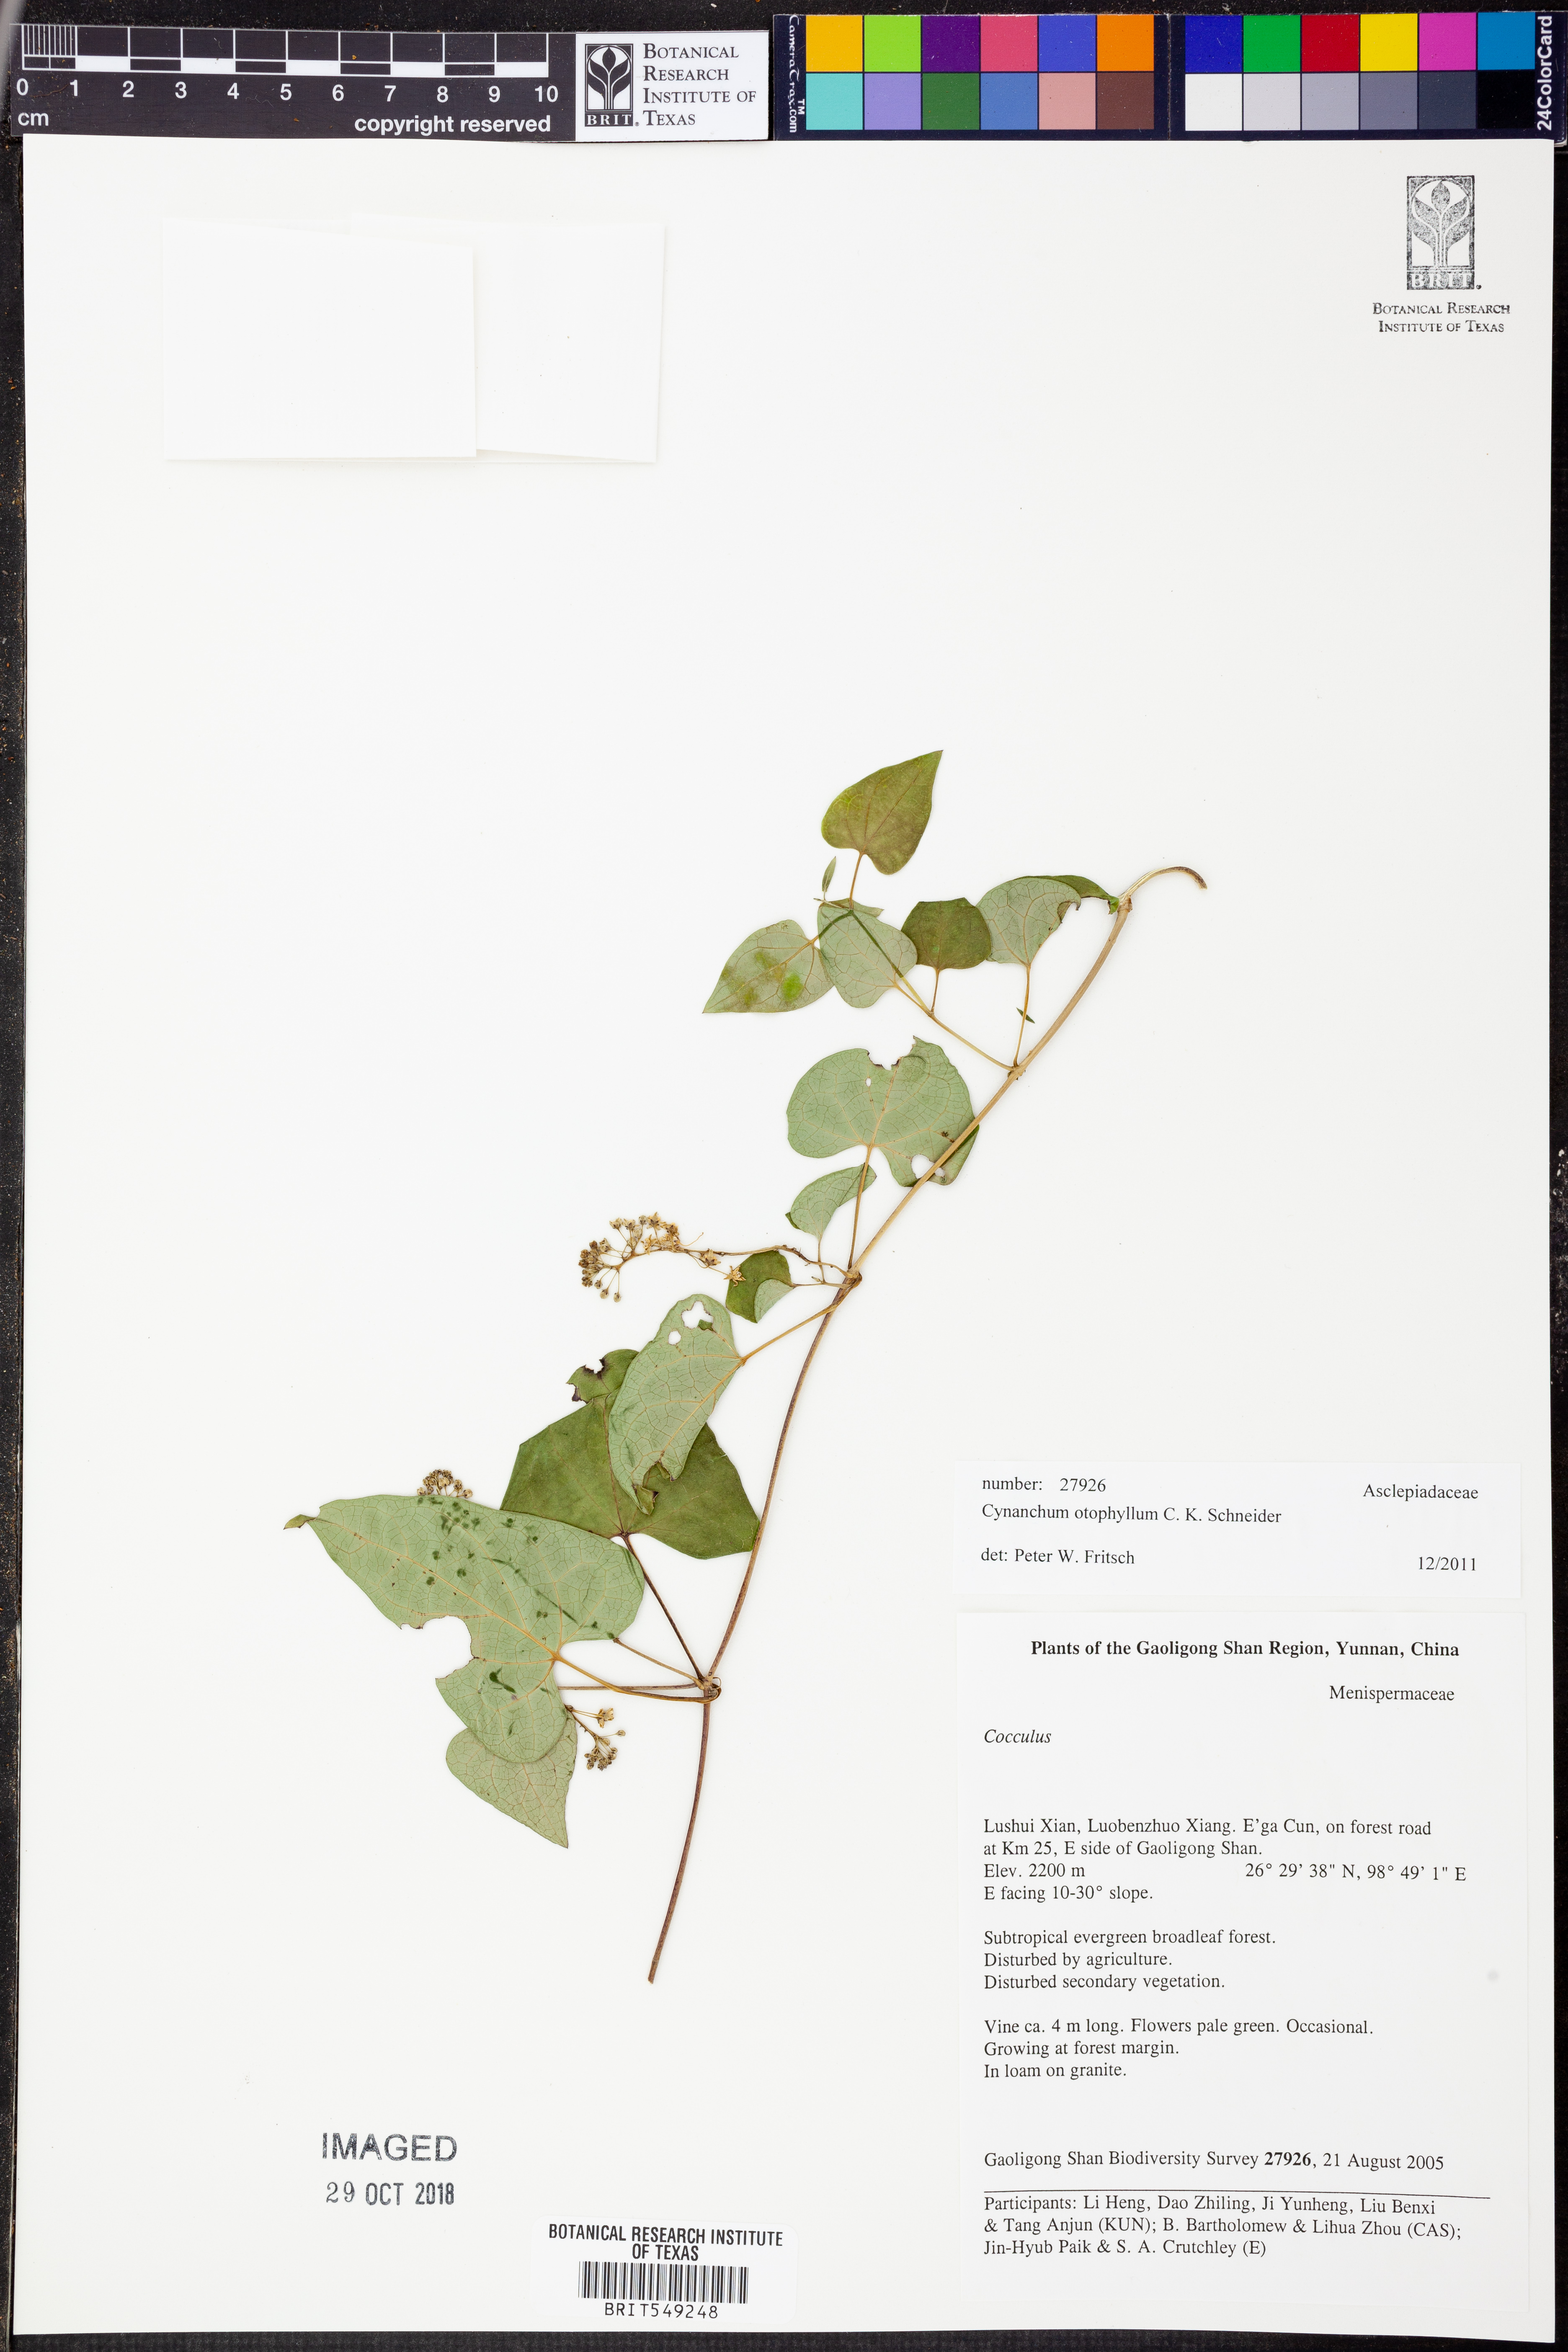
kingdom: Plantae
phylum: Tracheophyta
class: Magnoliopsida
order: Gentianales
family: Apocynaceae
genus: Vincetoxicum
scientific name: Vincetoxicum otophyllum
